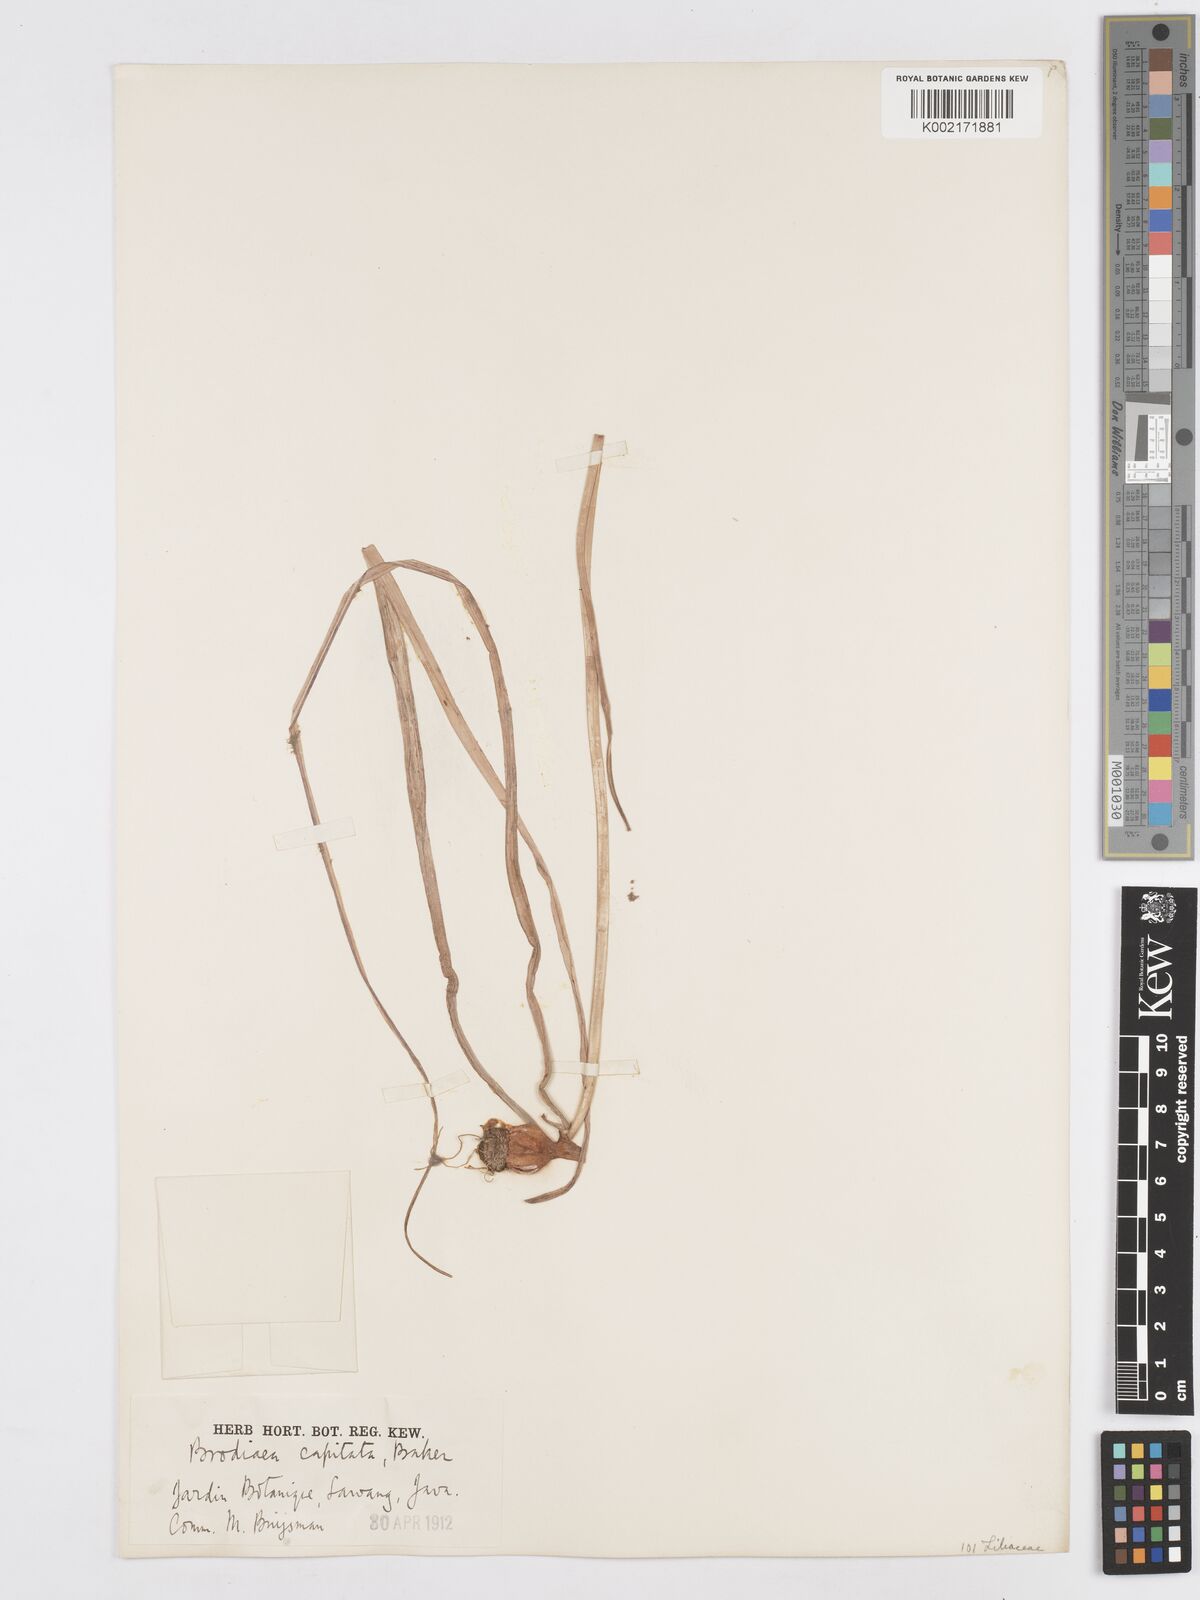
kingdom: Plantae
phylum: Tracheophyta
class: Liliopsida
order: Asparagales
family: Asparagaceae
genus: Dichelostemma
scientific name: Dichelostemma congestum
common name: Fork-tooth ookow
